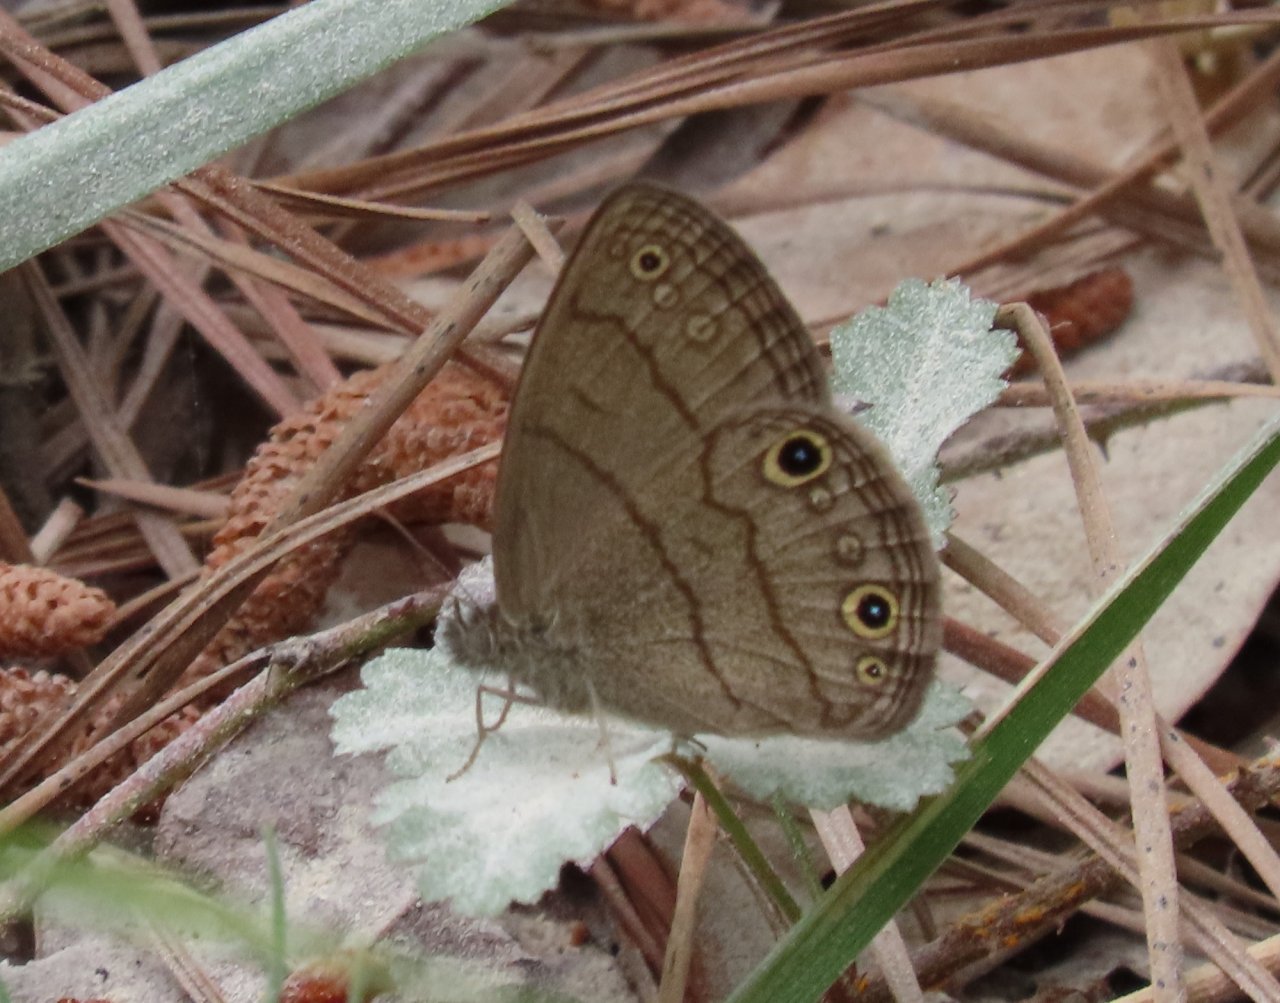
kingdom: Animalia
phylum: Arthropoda
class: Insecta
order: Lepidoptera
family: Nymphalidae
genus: Hermeuptychia
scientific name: Hermeuptychia hermes
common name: Carolina Satyr
